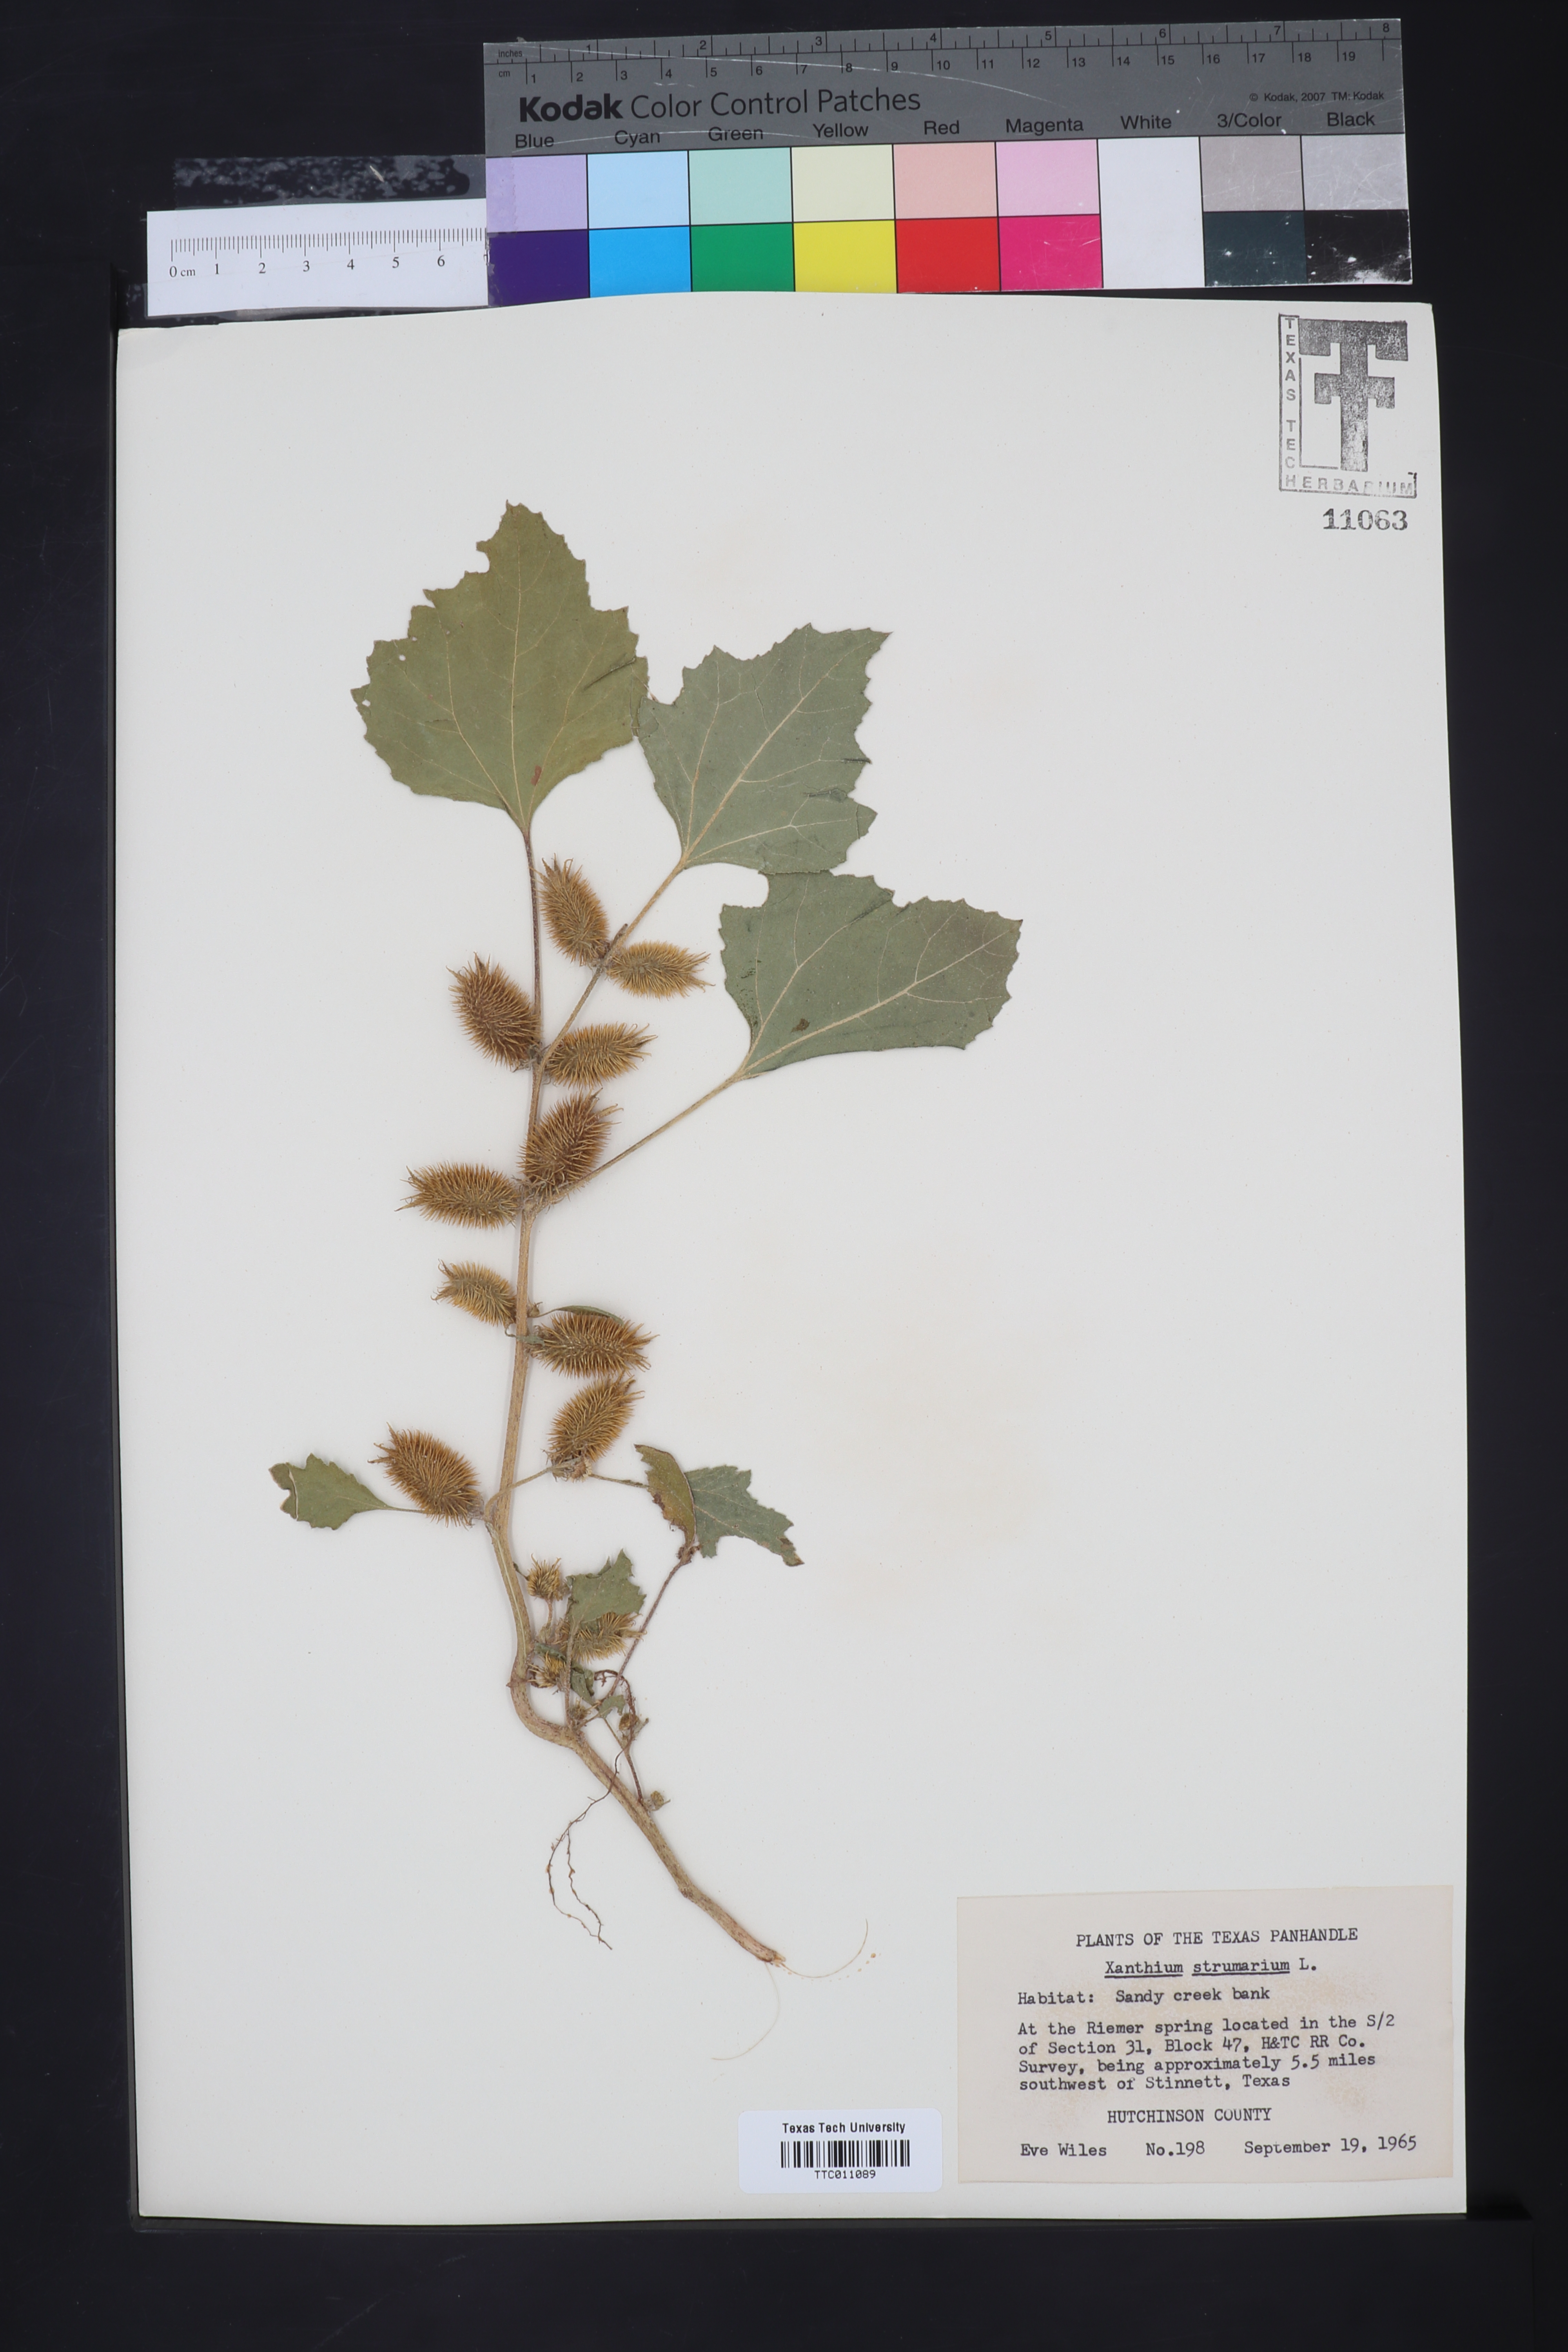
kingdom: Plantae
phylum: Tracheophyta
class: Magnoliopsida
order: Asterales
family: Asteraceae
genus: Xanthium
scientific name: Xanthium strumarium
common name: Rough cocklebur
